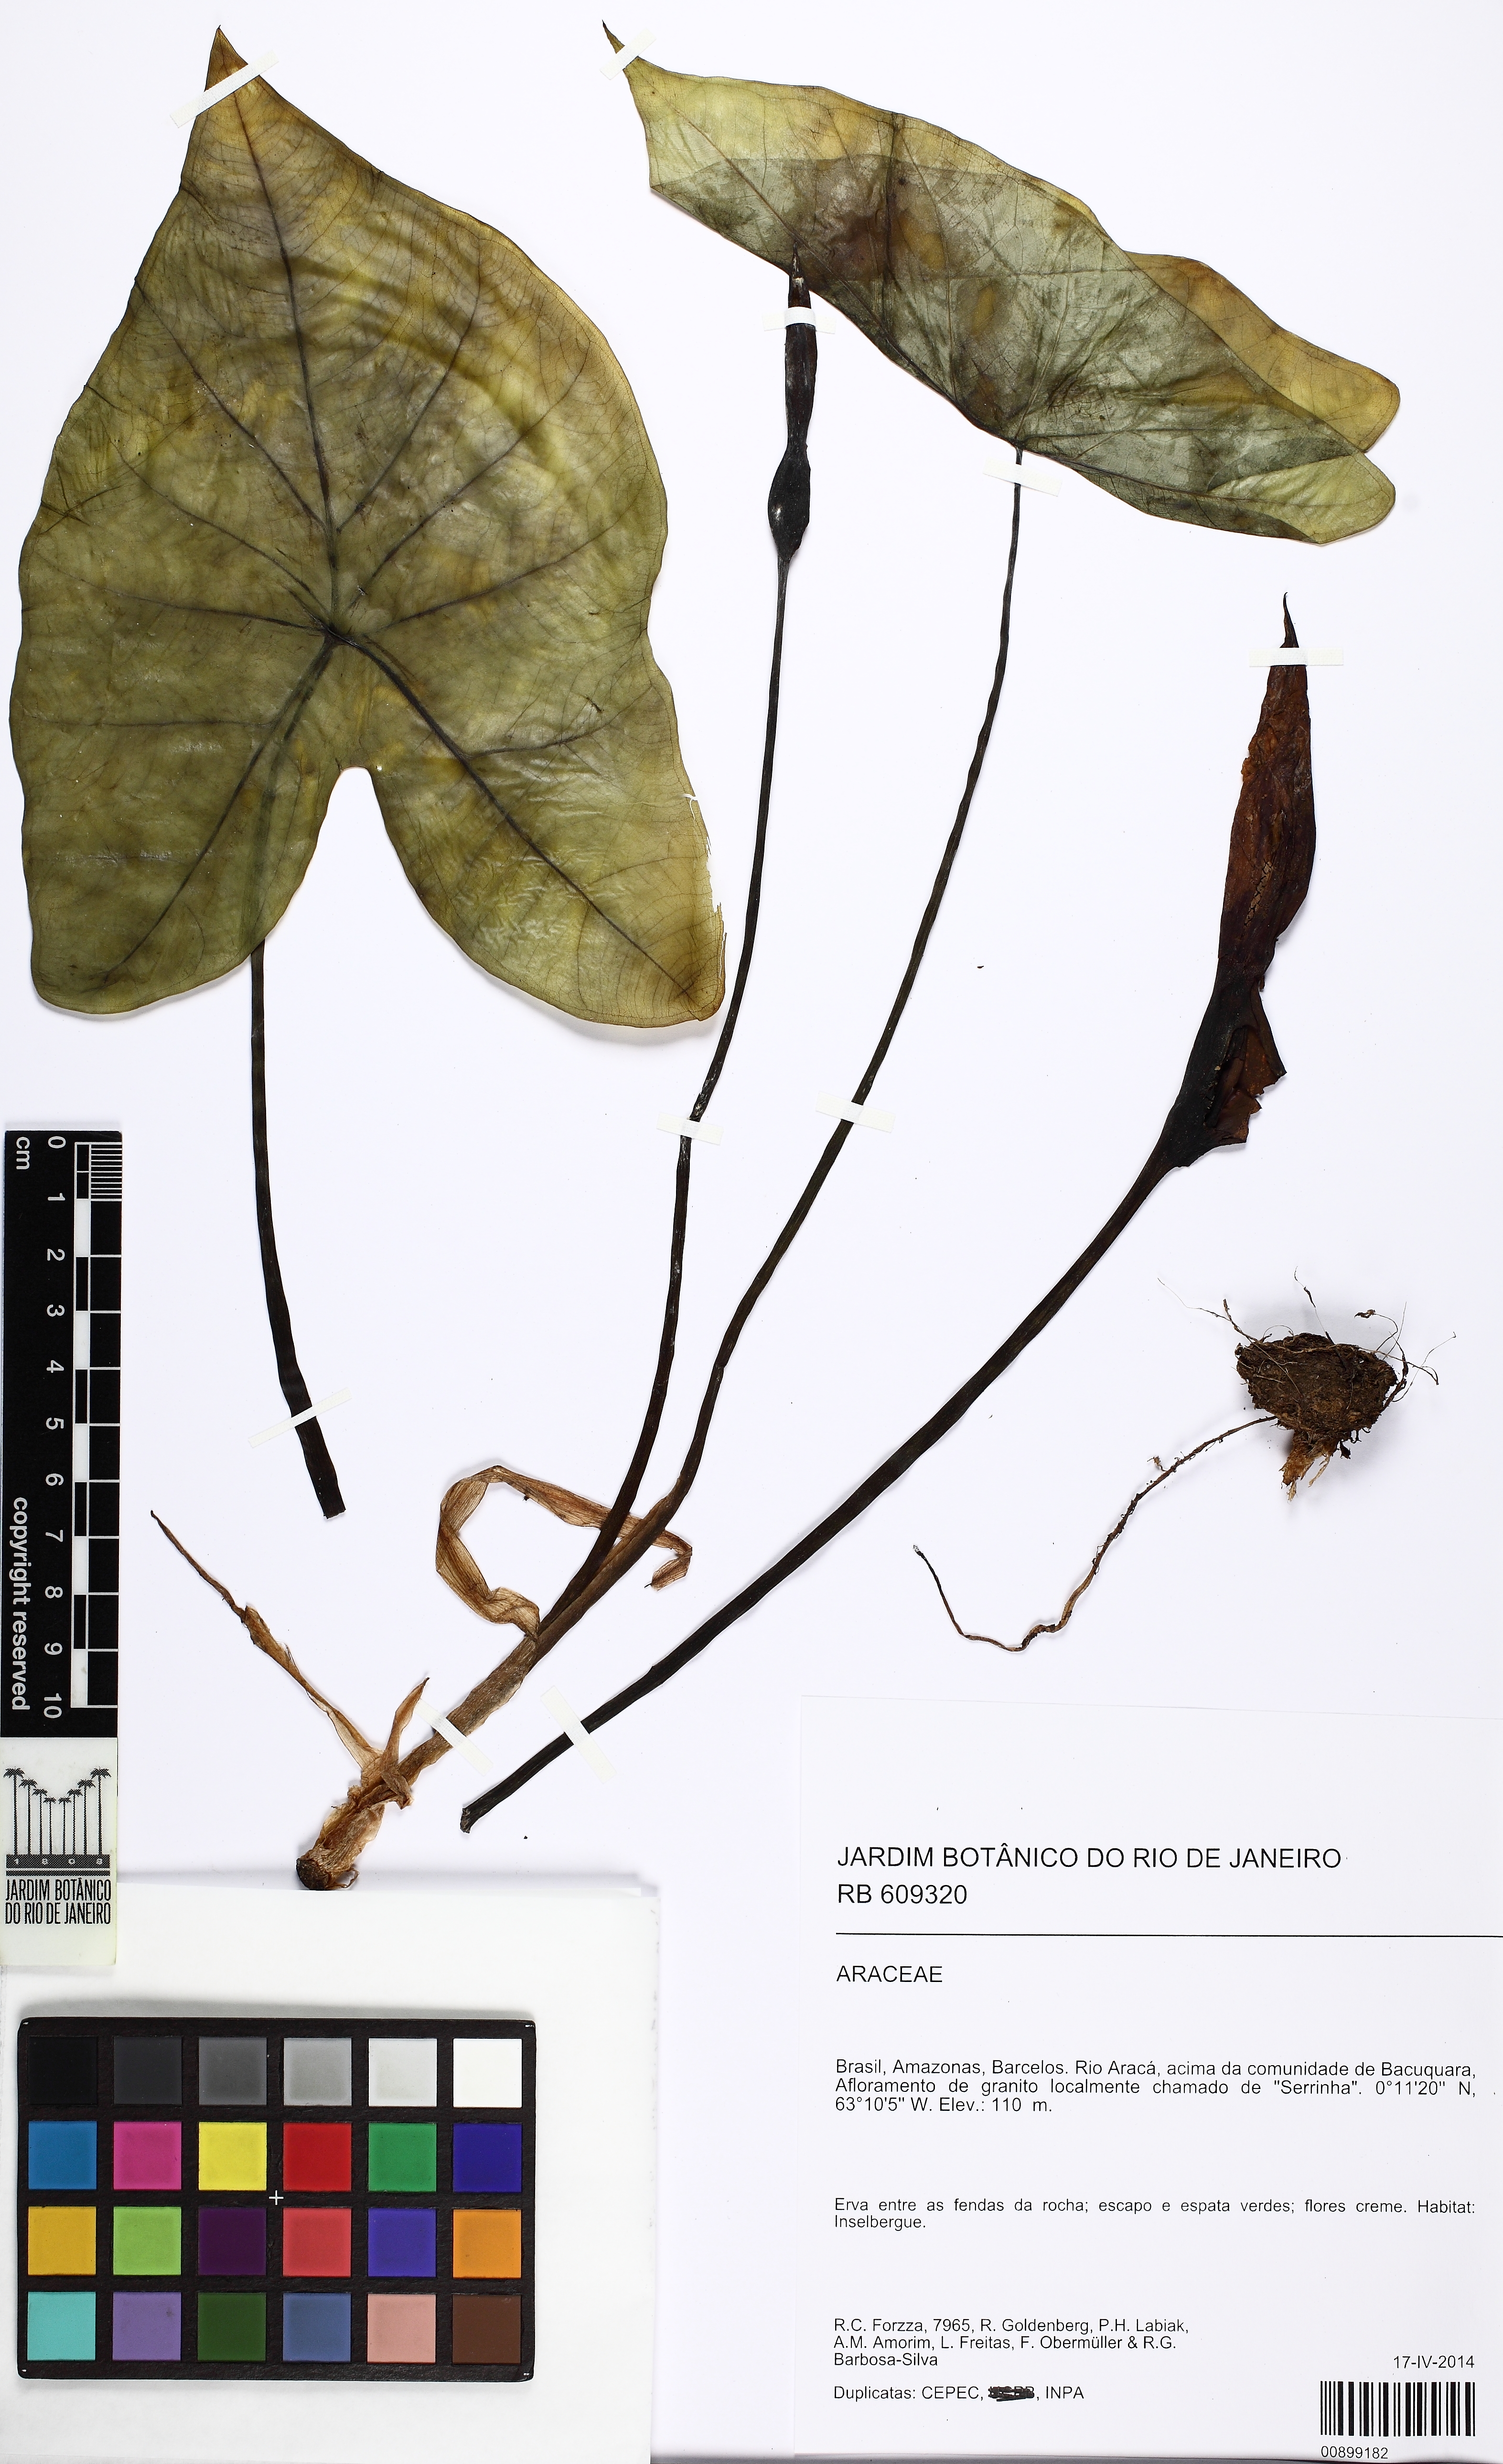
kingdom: Plantae
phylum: Tracheophyta
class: Liliopsida
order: Alismatales
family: Araceae
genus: Caladium
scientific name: Caladium bicolor
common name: Artist's pallet
